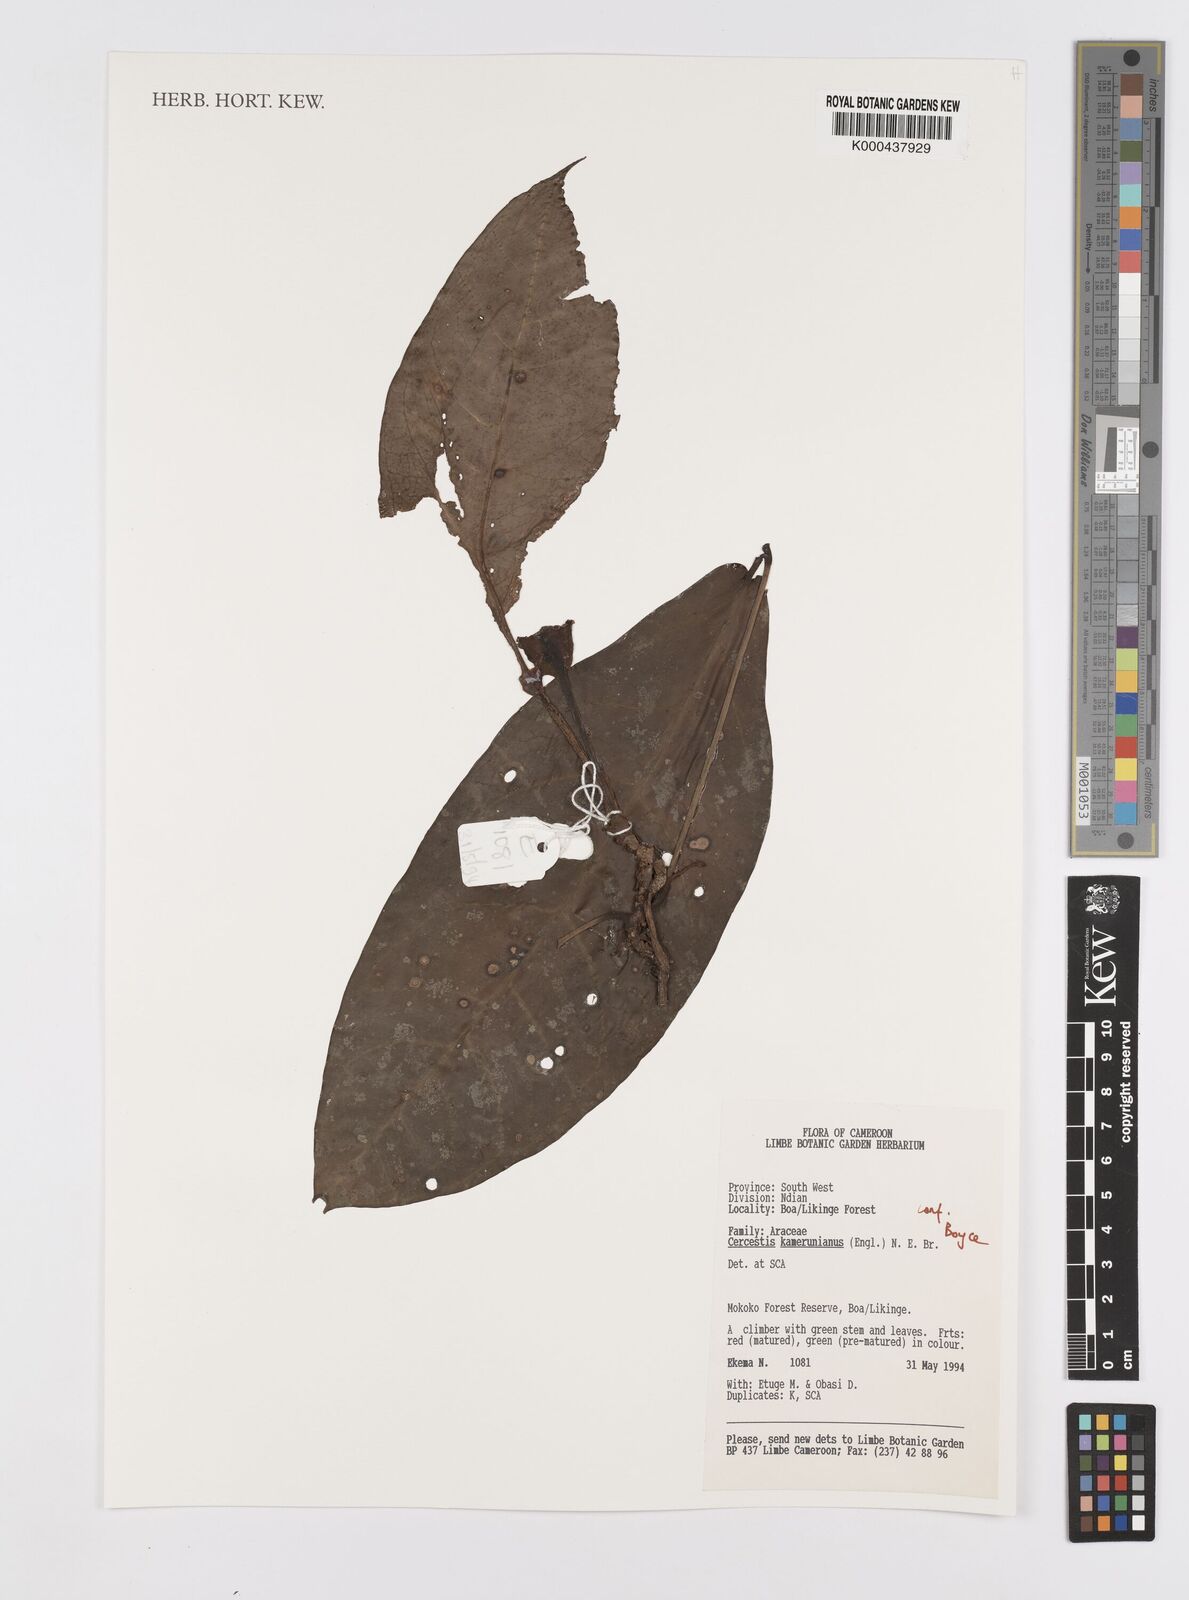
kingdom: Plantae
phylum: Tracheophyta
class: Liliopsida
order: Alismatales
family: Araceae
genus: Cercestis
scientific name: Cercestis kamerunianus
